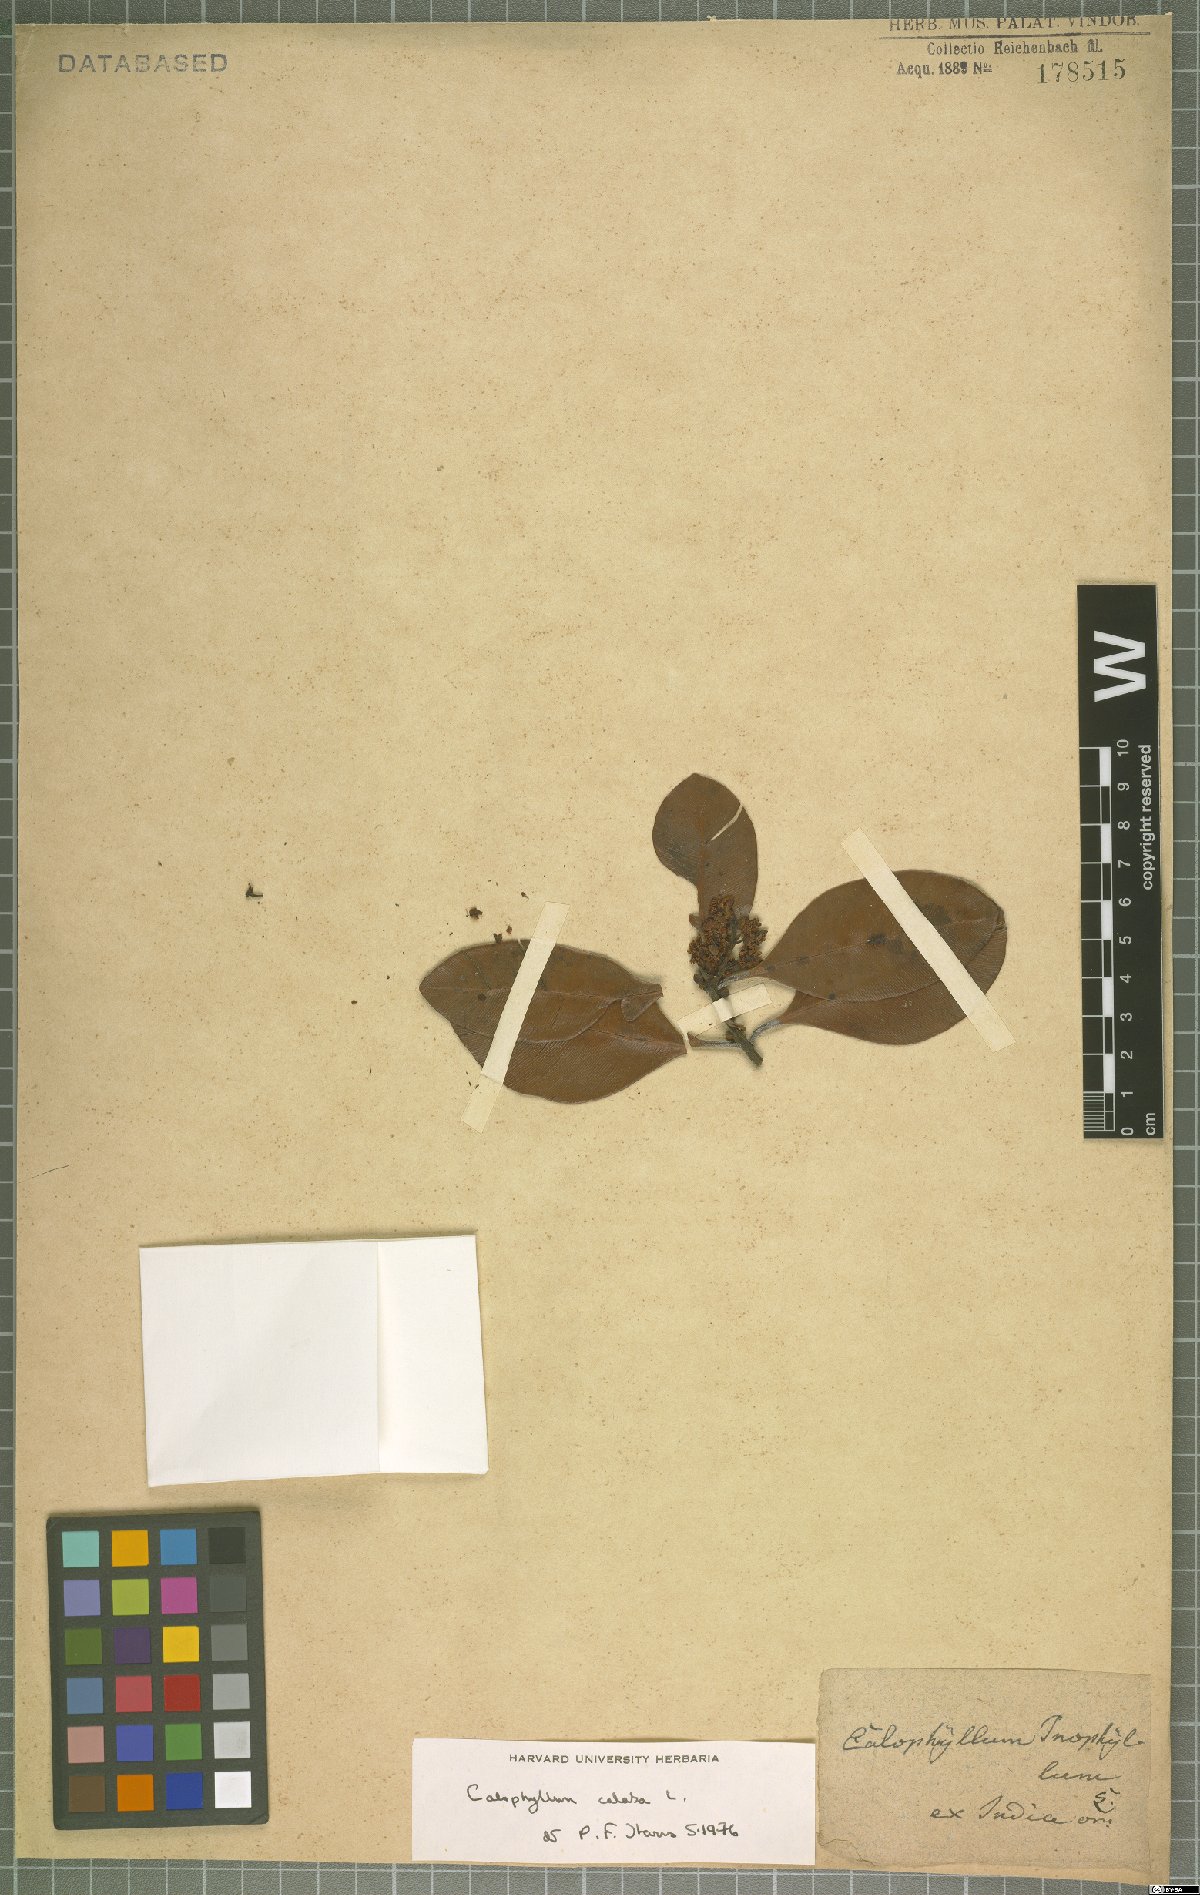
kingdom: Plantae
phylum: Tracheophyta
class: Magnoliopsida
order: Malpighiales
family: Calophyllaceae
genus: Calophyllum
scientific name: Calophyllum calaba
